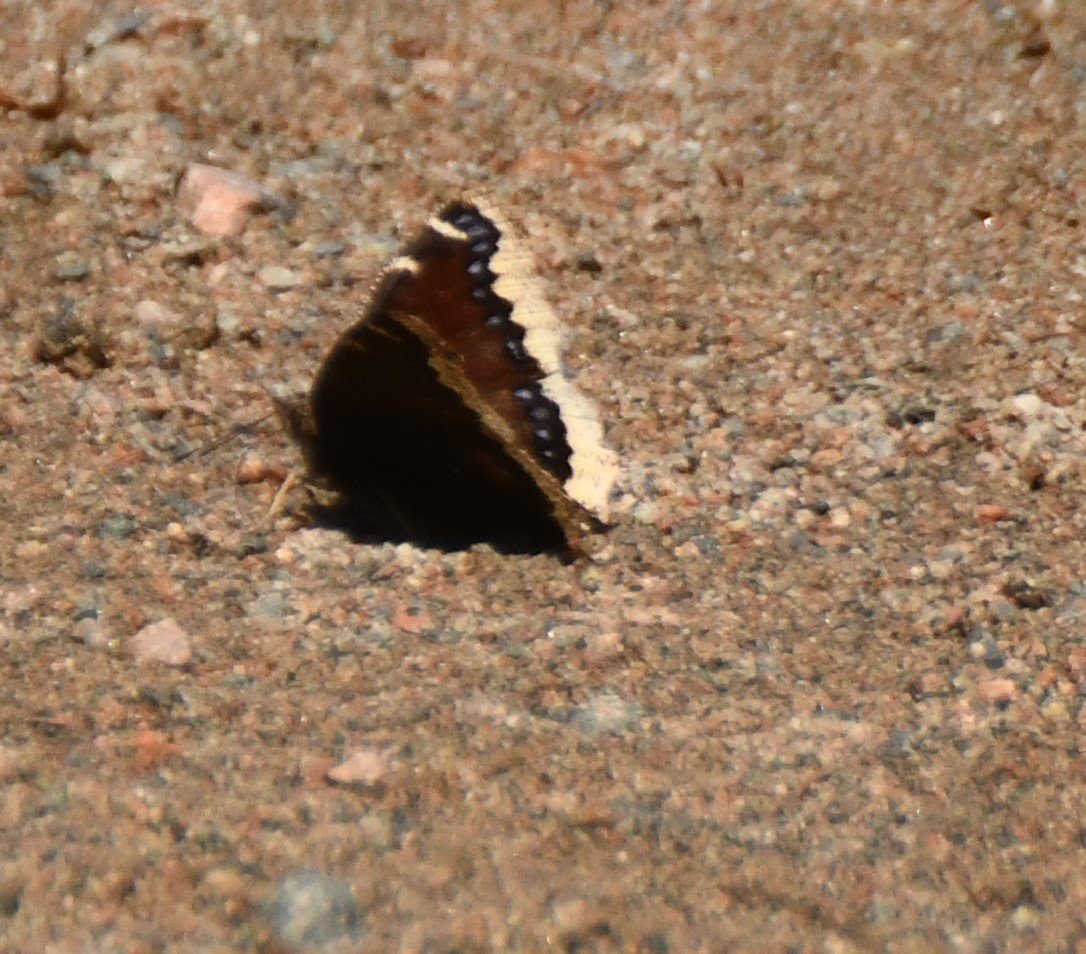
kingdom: Animalia
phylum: Arthropoda
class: Insecta
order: Lepidoptera
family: Nymphalidae
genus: Nymphalis
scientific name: Nymphalis antiopa
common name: Mourning Cloak
